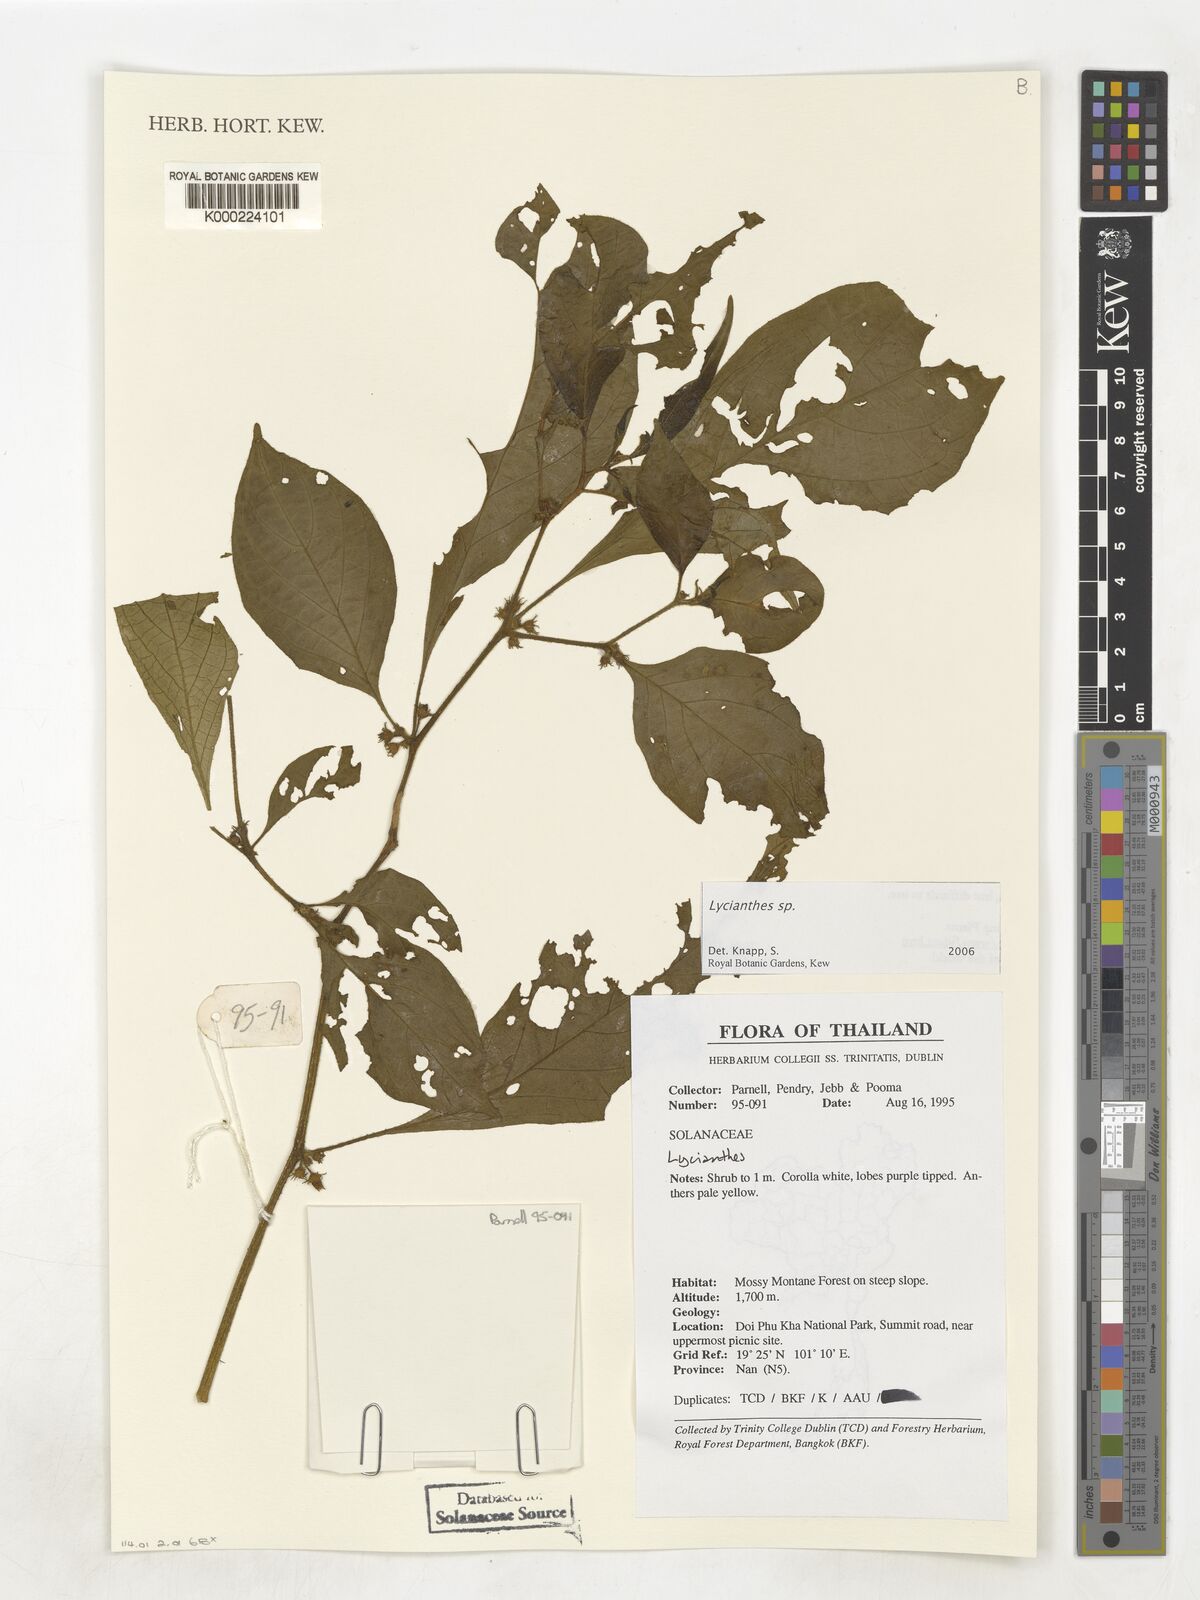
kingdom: Plantae
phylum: Tracheophyta
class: Magnoliopsida
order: Solanales
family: Solanaceae
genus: Lycianthes
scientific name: Lycianthes
